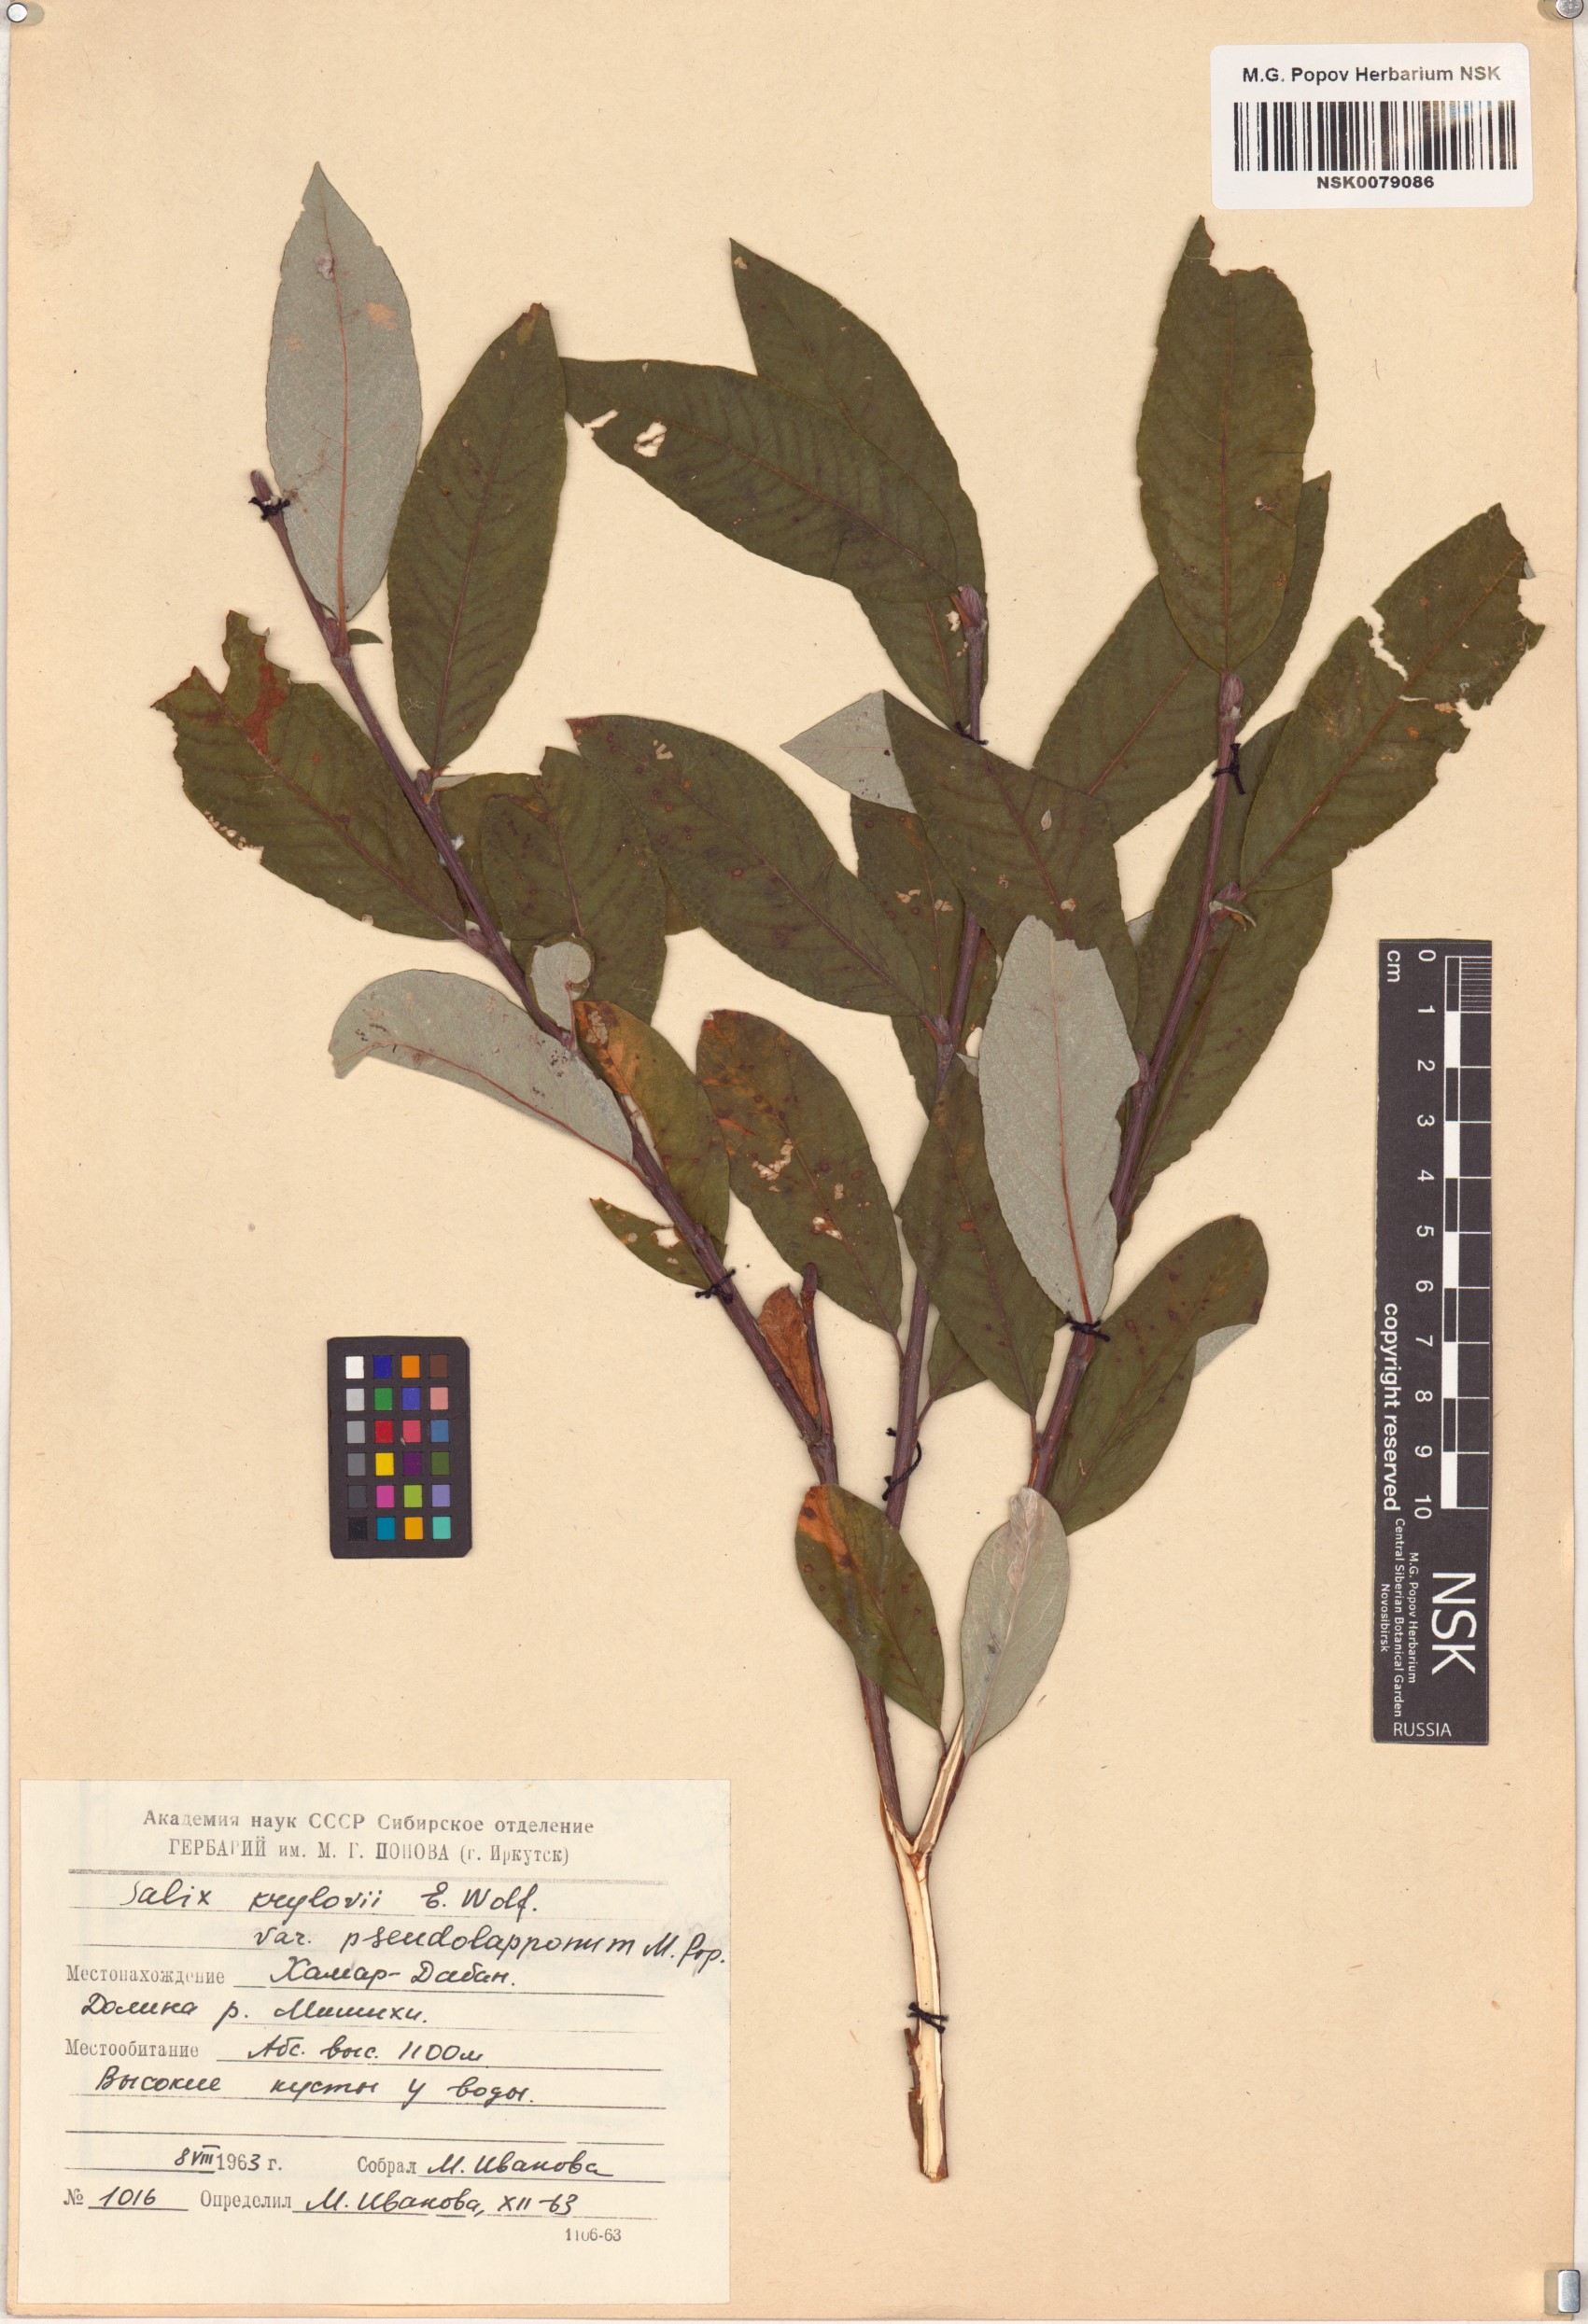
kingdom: Plantae
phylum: Tracheophyta
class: Magnoliopsida
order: Malpighiales
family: Salicaceae
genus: Salix
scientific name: Salix krylovii
